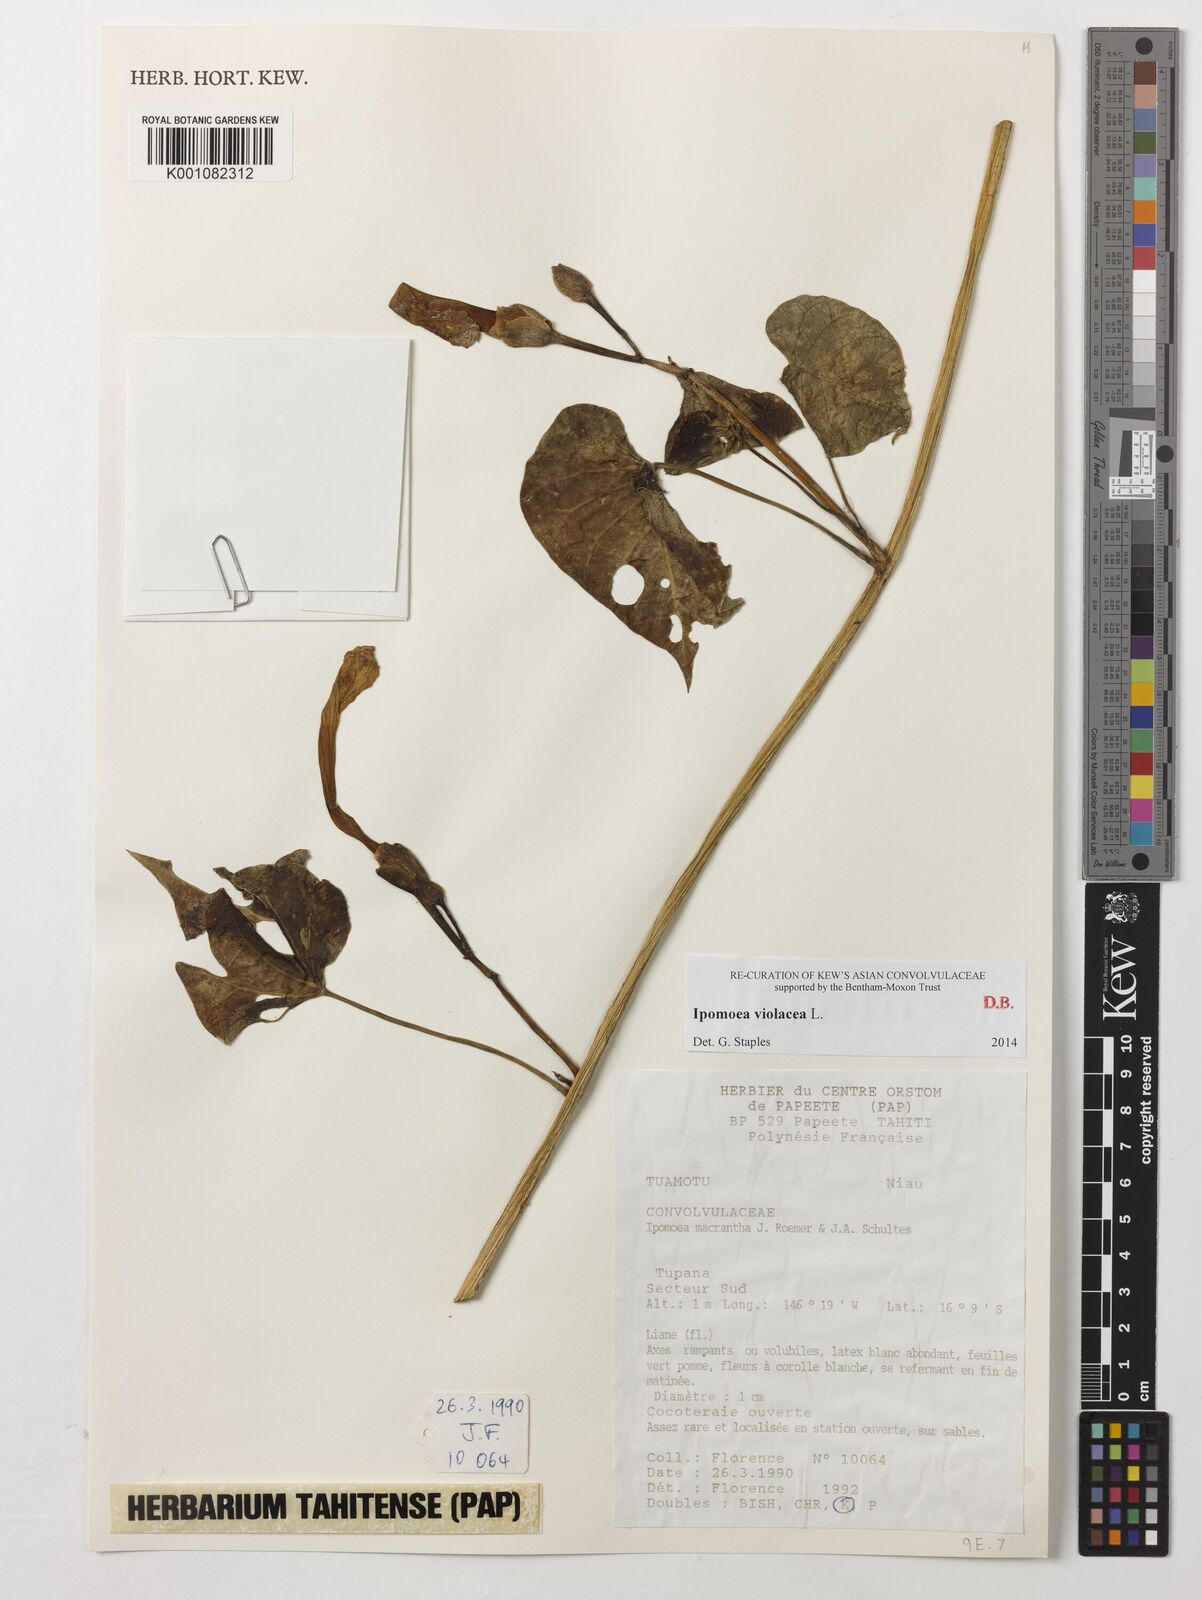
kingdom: Plantae
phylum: Tracheophyta
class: Magnoliopsida
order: Solanales
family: Convolvulaceae
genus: Ipomoea
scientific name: Ipomoea violacea
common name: Beach moonflower
